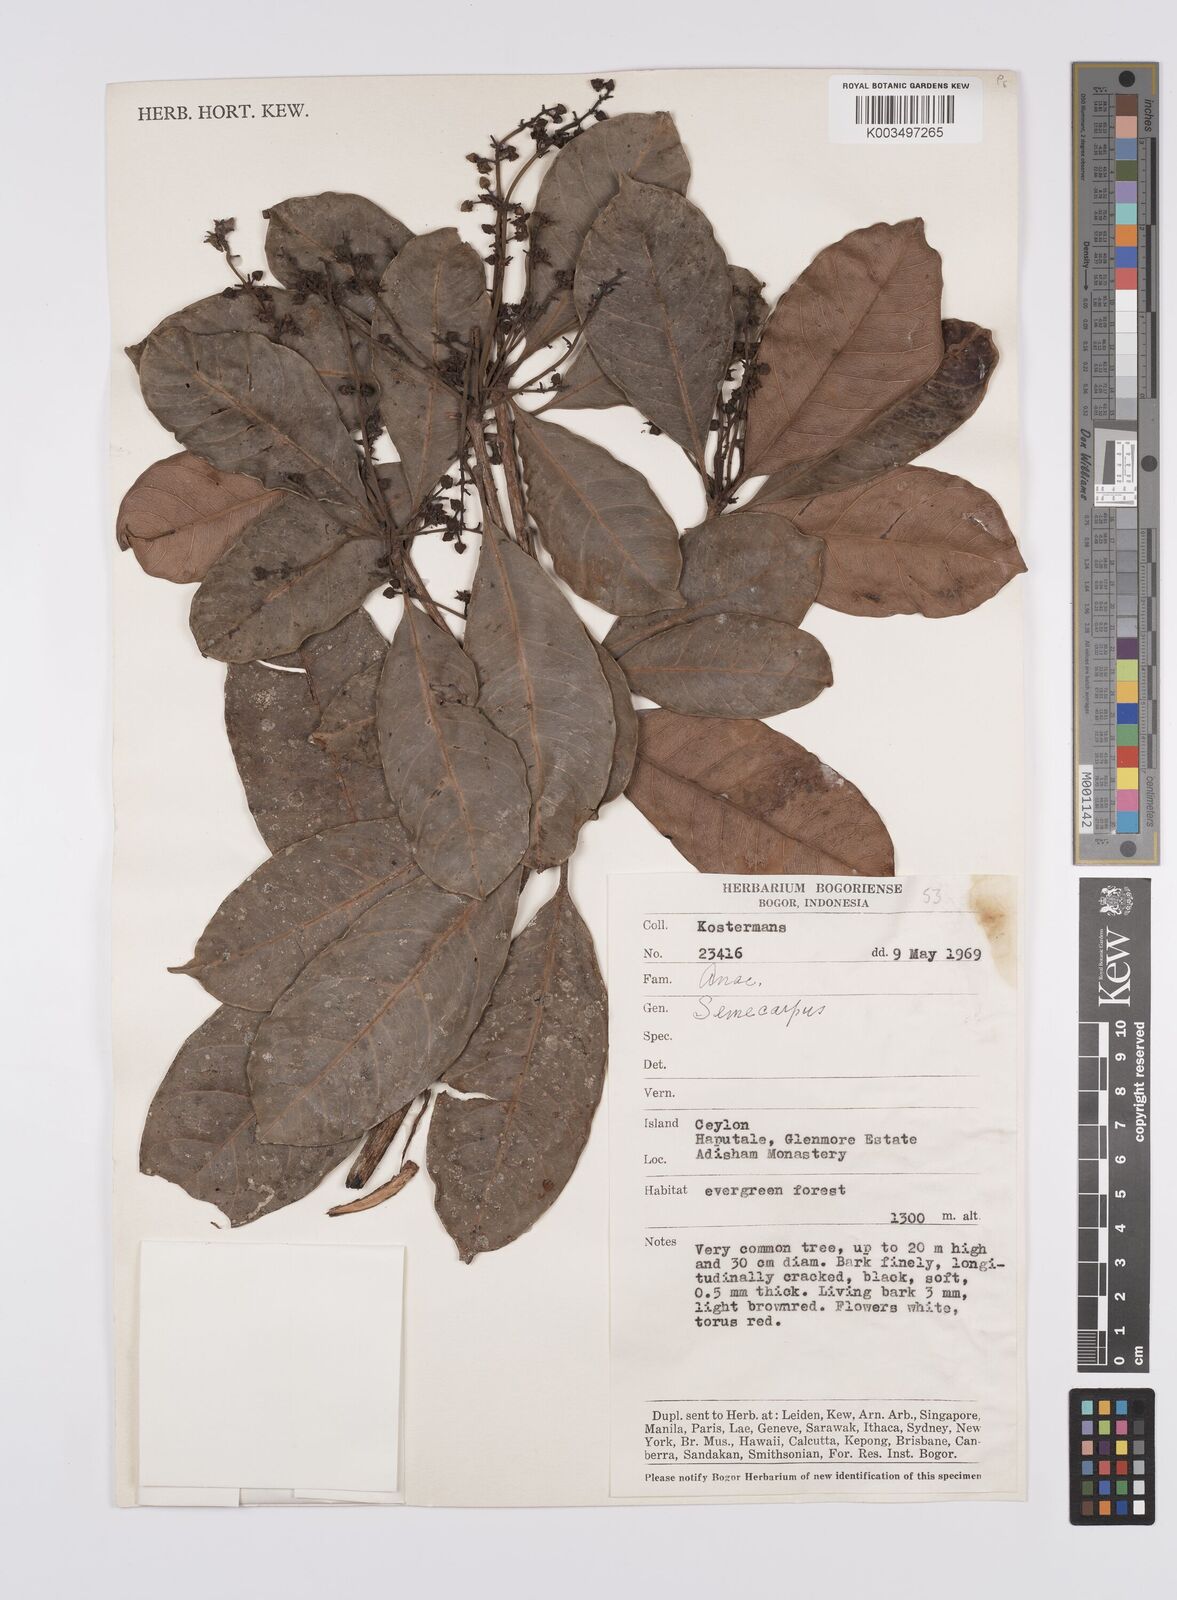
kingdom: Plantae
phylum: Tracheophyta
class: Magnoliopsida
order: Sapindales
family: Anacardiaceae
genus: Semecarpus
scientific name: Semecarpus
